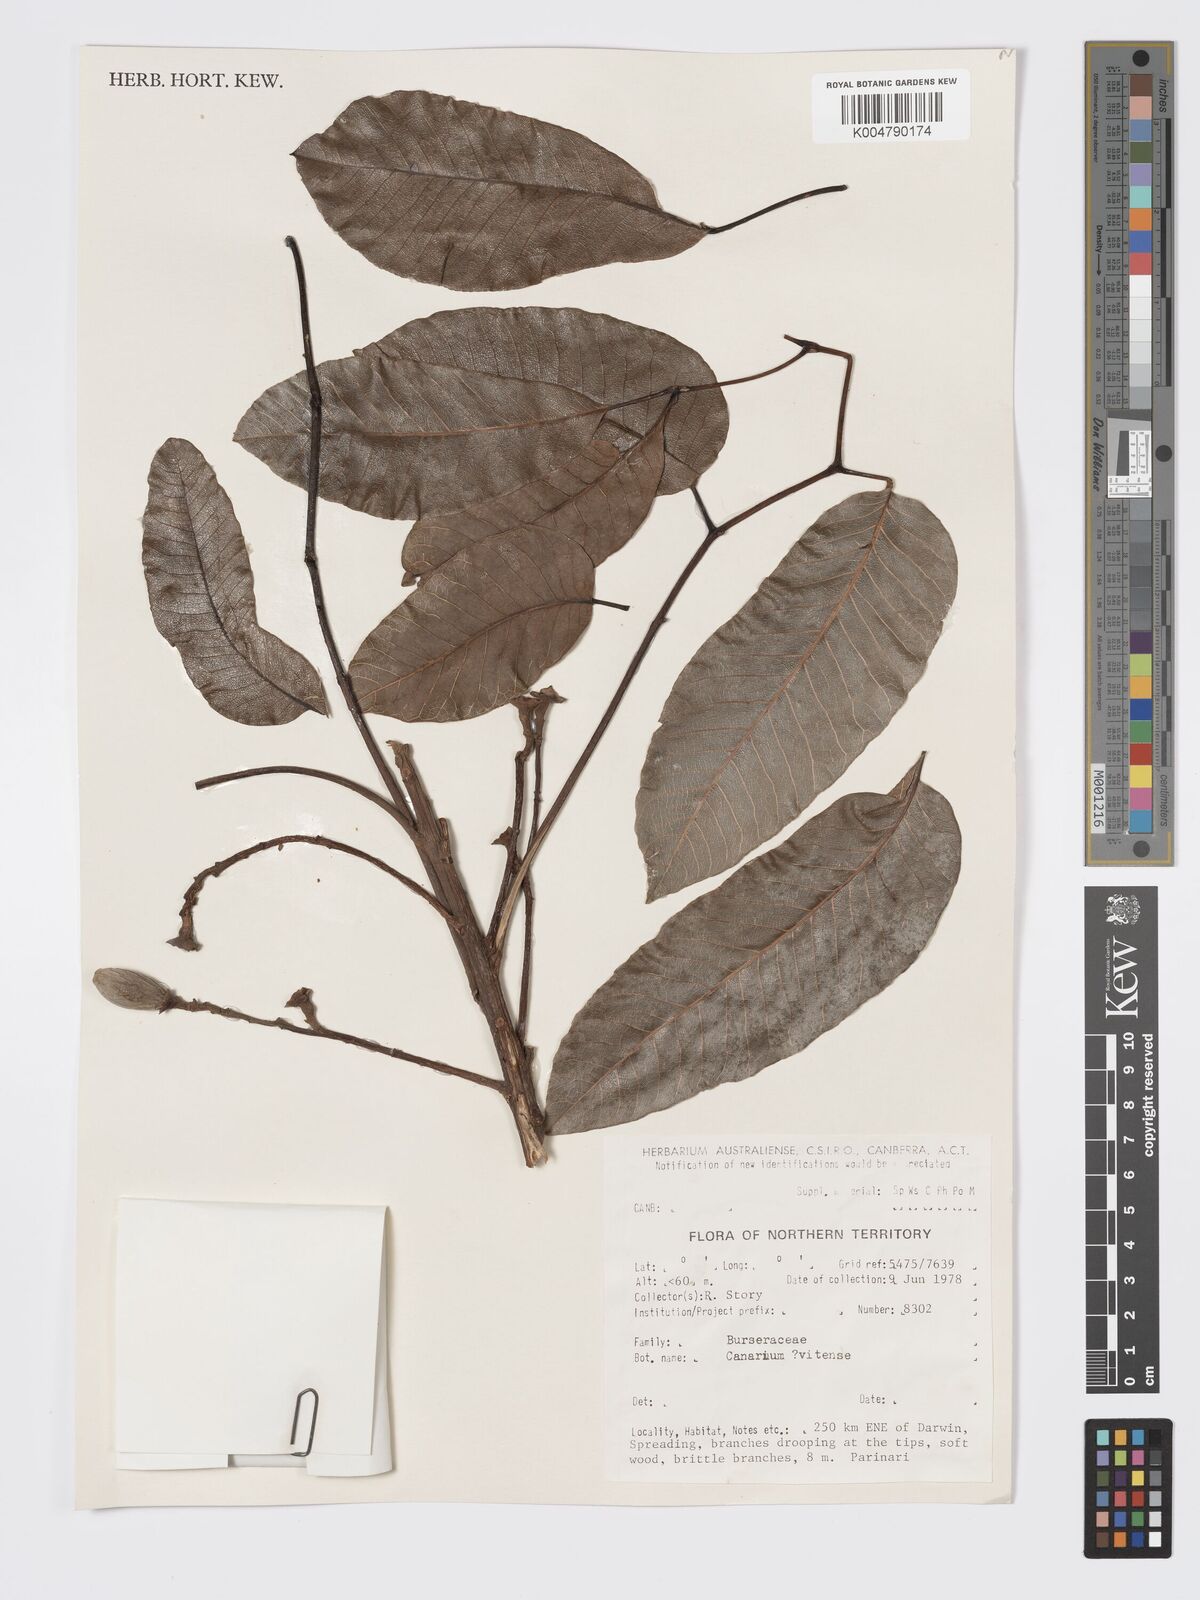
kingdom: Plantae
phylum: Tracheophyta
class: Magnoliopsida
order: Sapindales
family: Burseraceae
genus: Canarium
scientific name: Canarium vitiense
